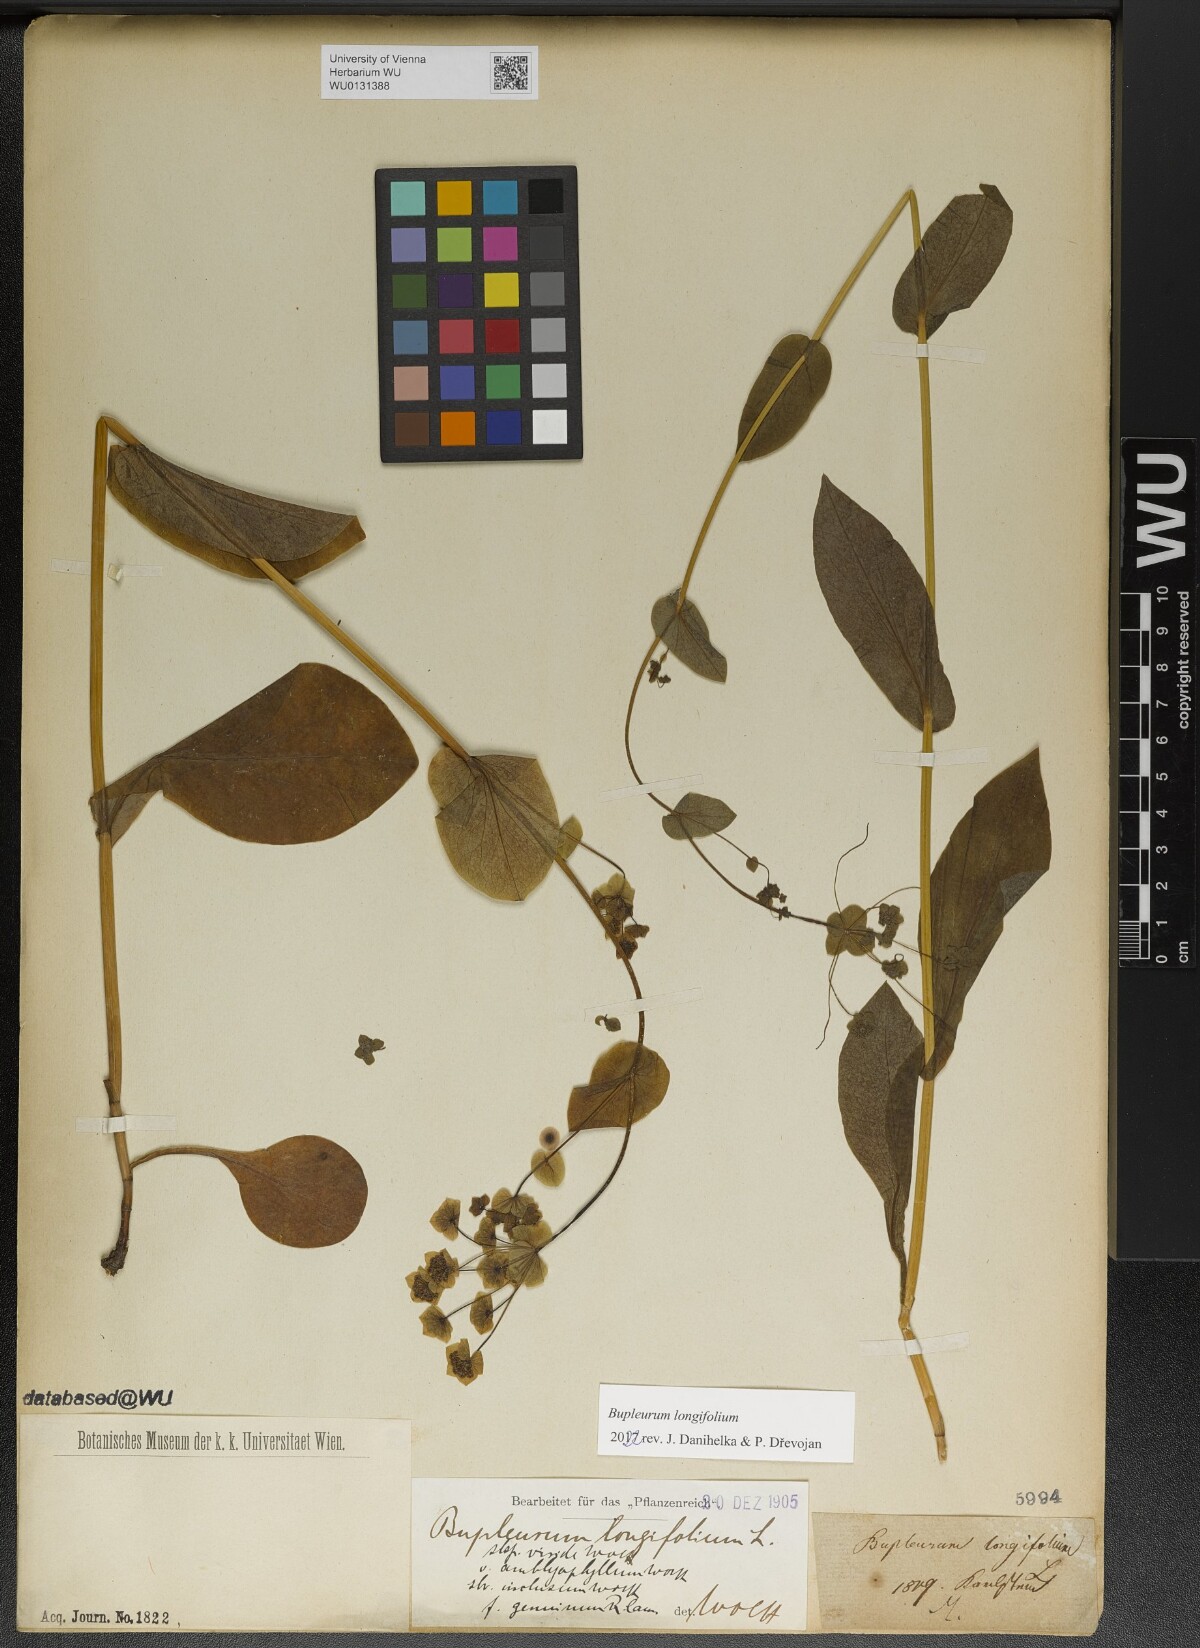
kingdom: Plantae
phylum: Tracheophyta
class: Magnoliopsida
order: Apiales
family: Apiaceae
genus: Bupleurum
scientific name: Bupleurum longifolium
